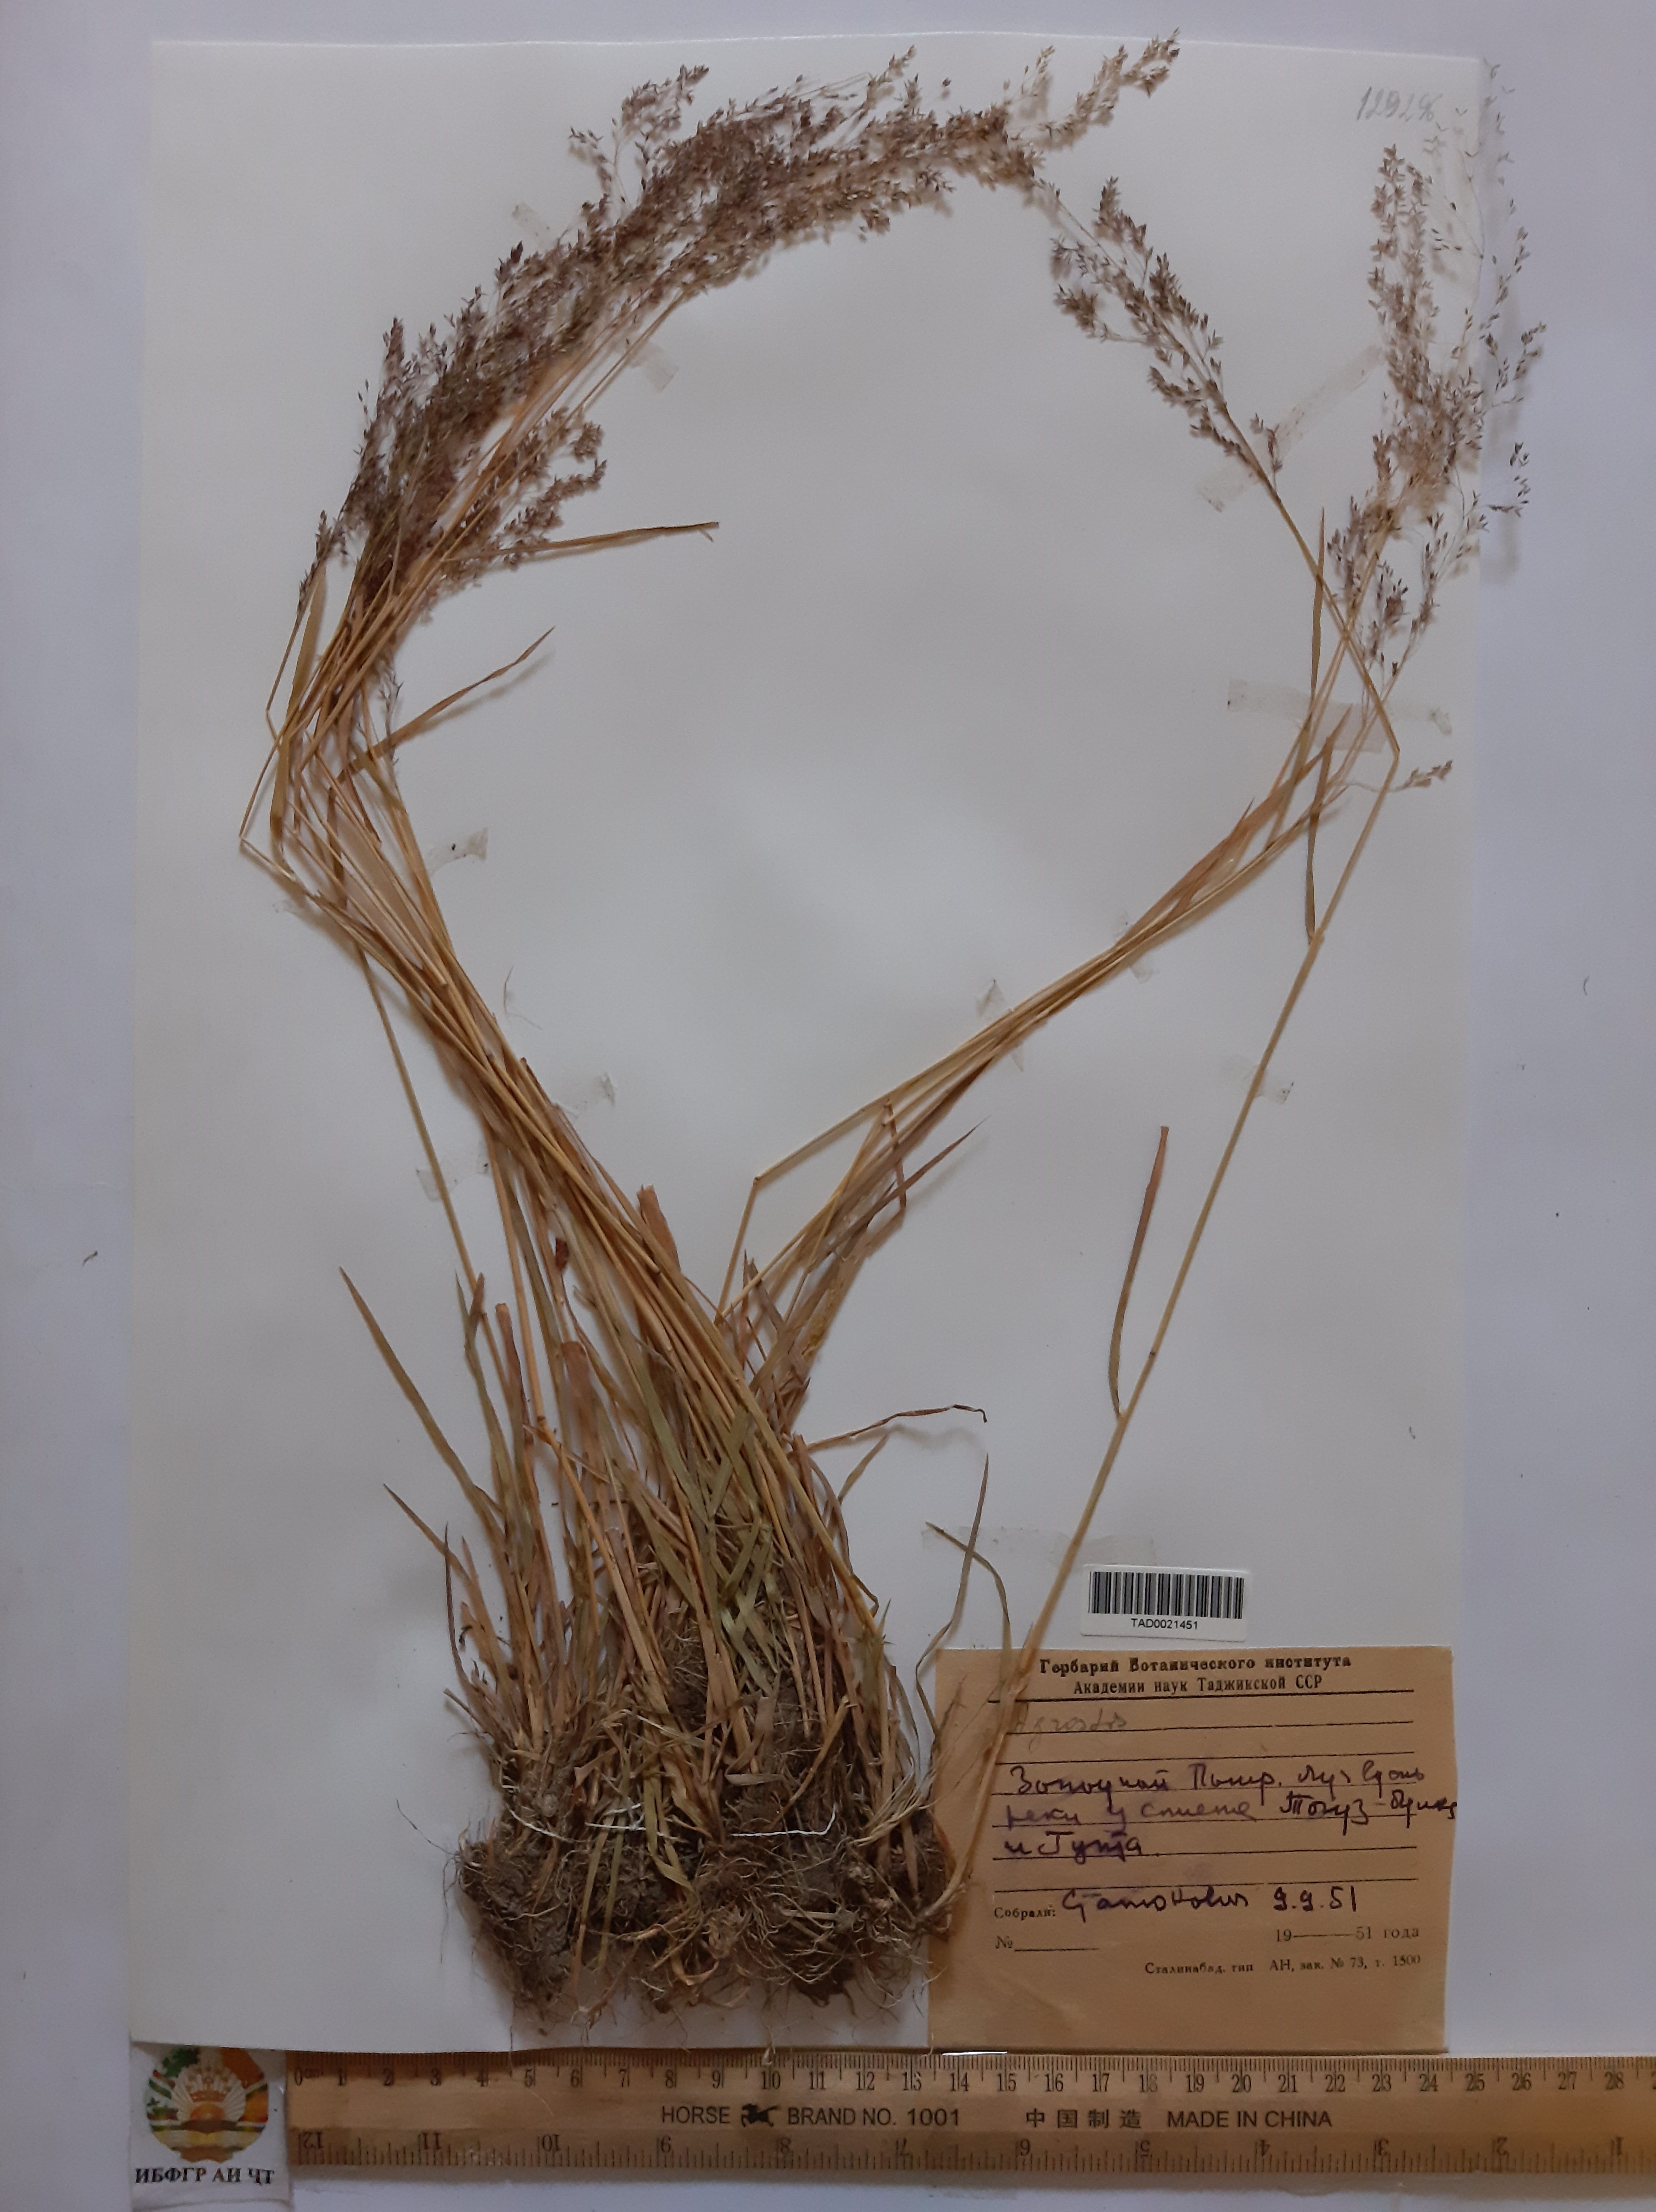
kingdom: Plantae
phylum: Tracheophyta
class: Liliopsida
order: Poales
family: Poaceae
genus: Agrostis
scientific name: Agrostis stolonifera
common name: Creeping bentgrass
